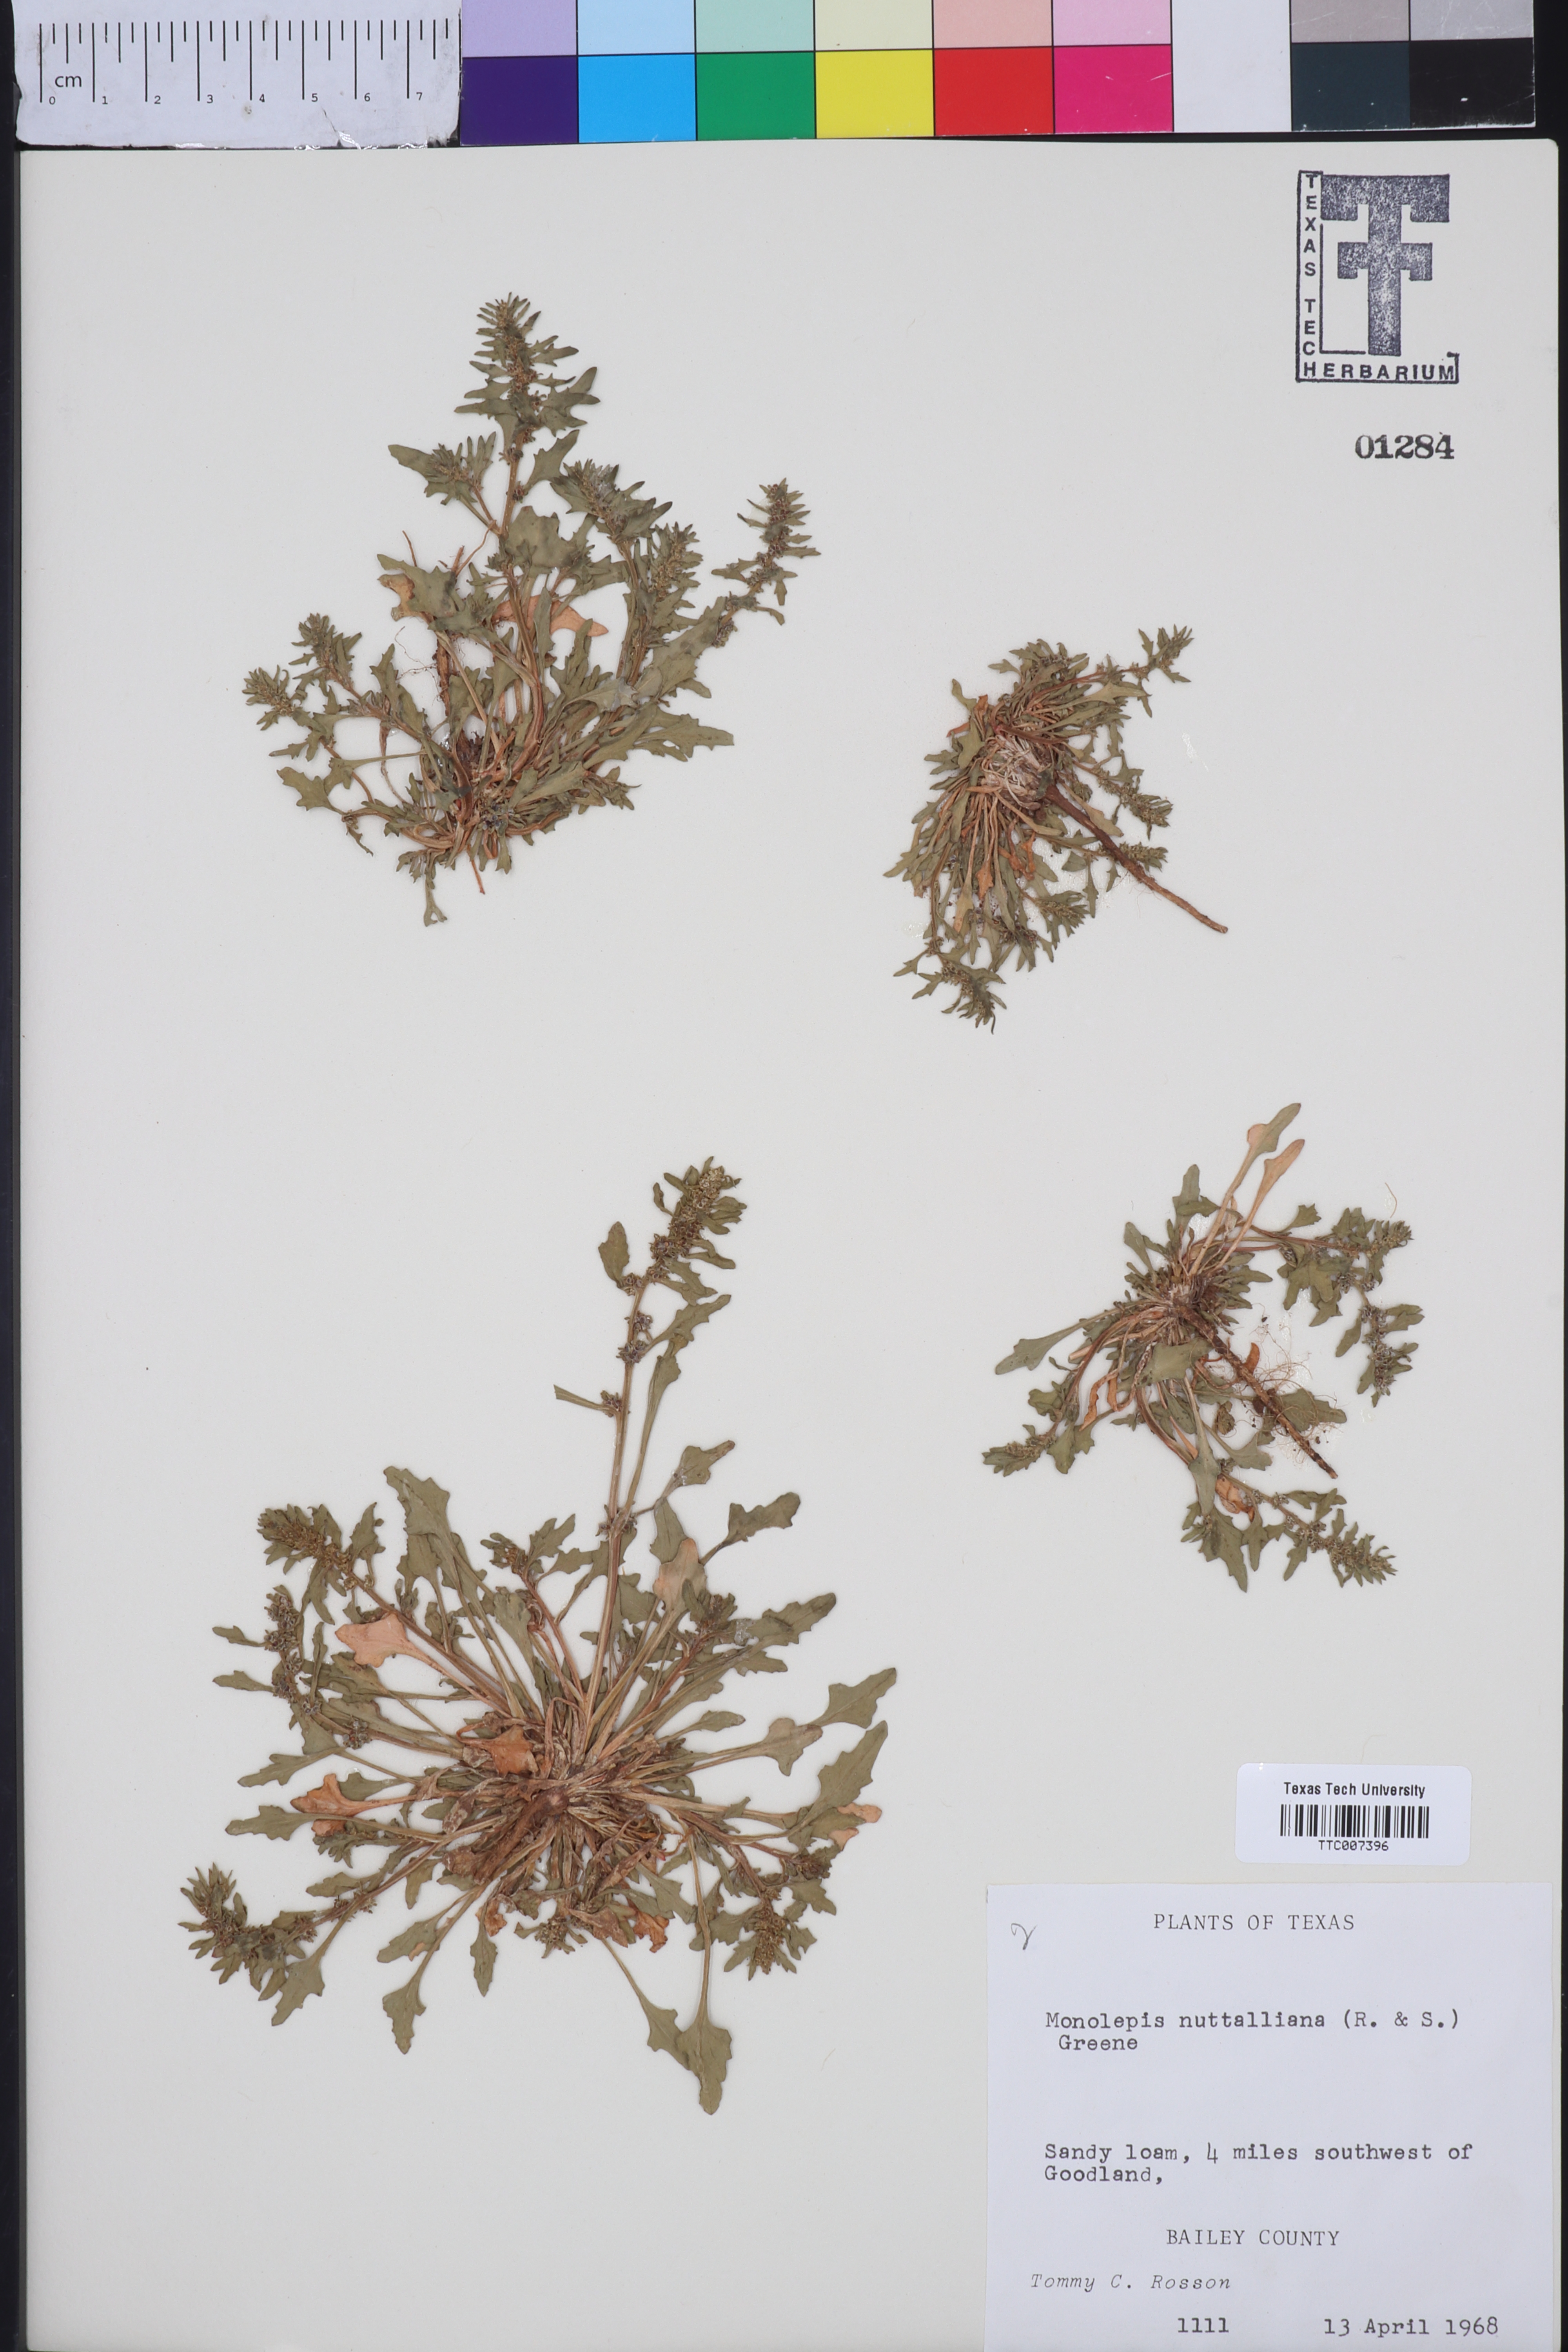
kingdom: Plantae
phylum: Tracheophyta
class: Magnoliopsida
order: Caryophyllales
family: Amaranthaceae
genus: Blitum
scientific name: Blitum nuttallianum
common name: Poverty-weed
